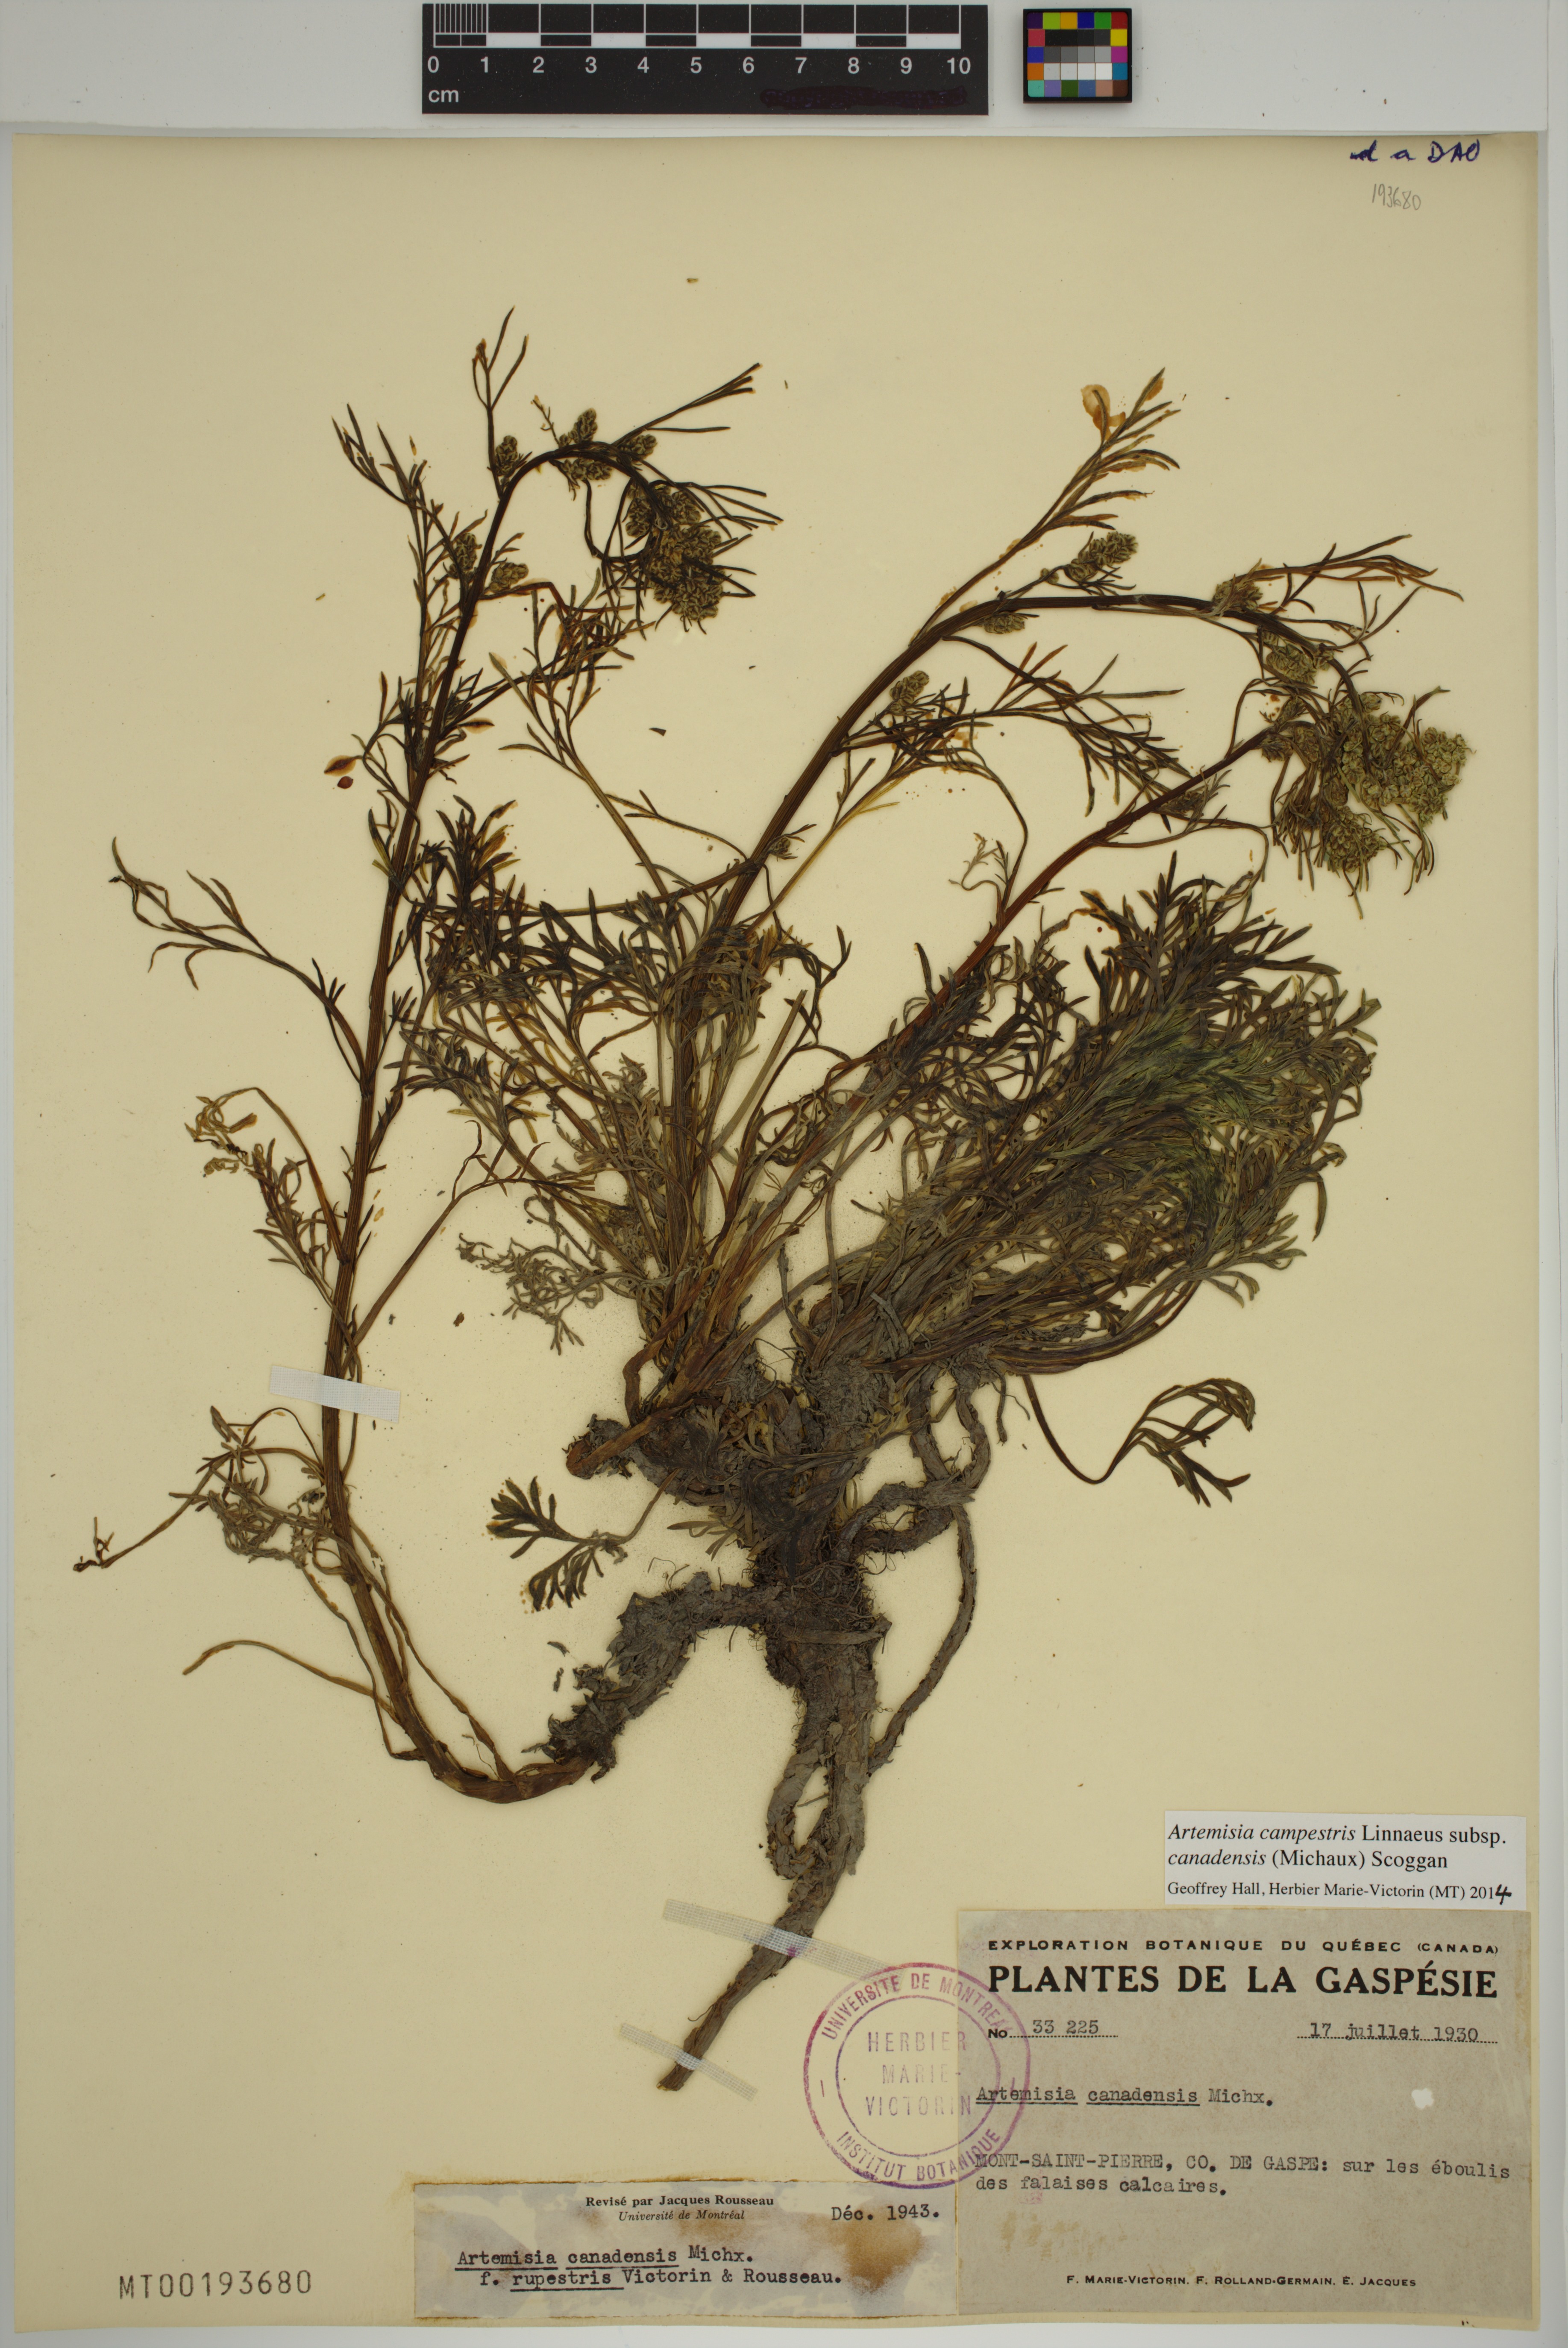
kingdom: Plantae
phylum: Tracheophyta
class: Magnoliopsida
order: Asterales
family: Asteraceae
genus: Artemisia
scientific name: Artemisia campestris
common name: Field wormwood
